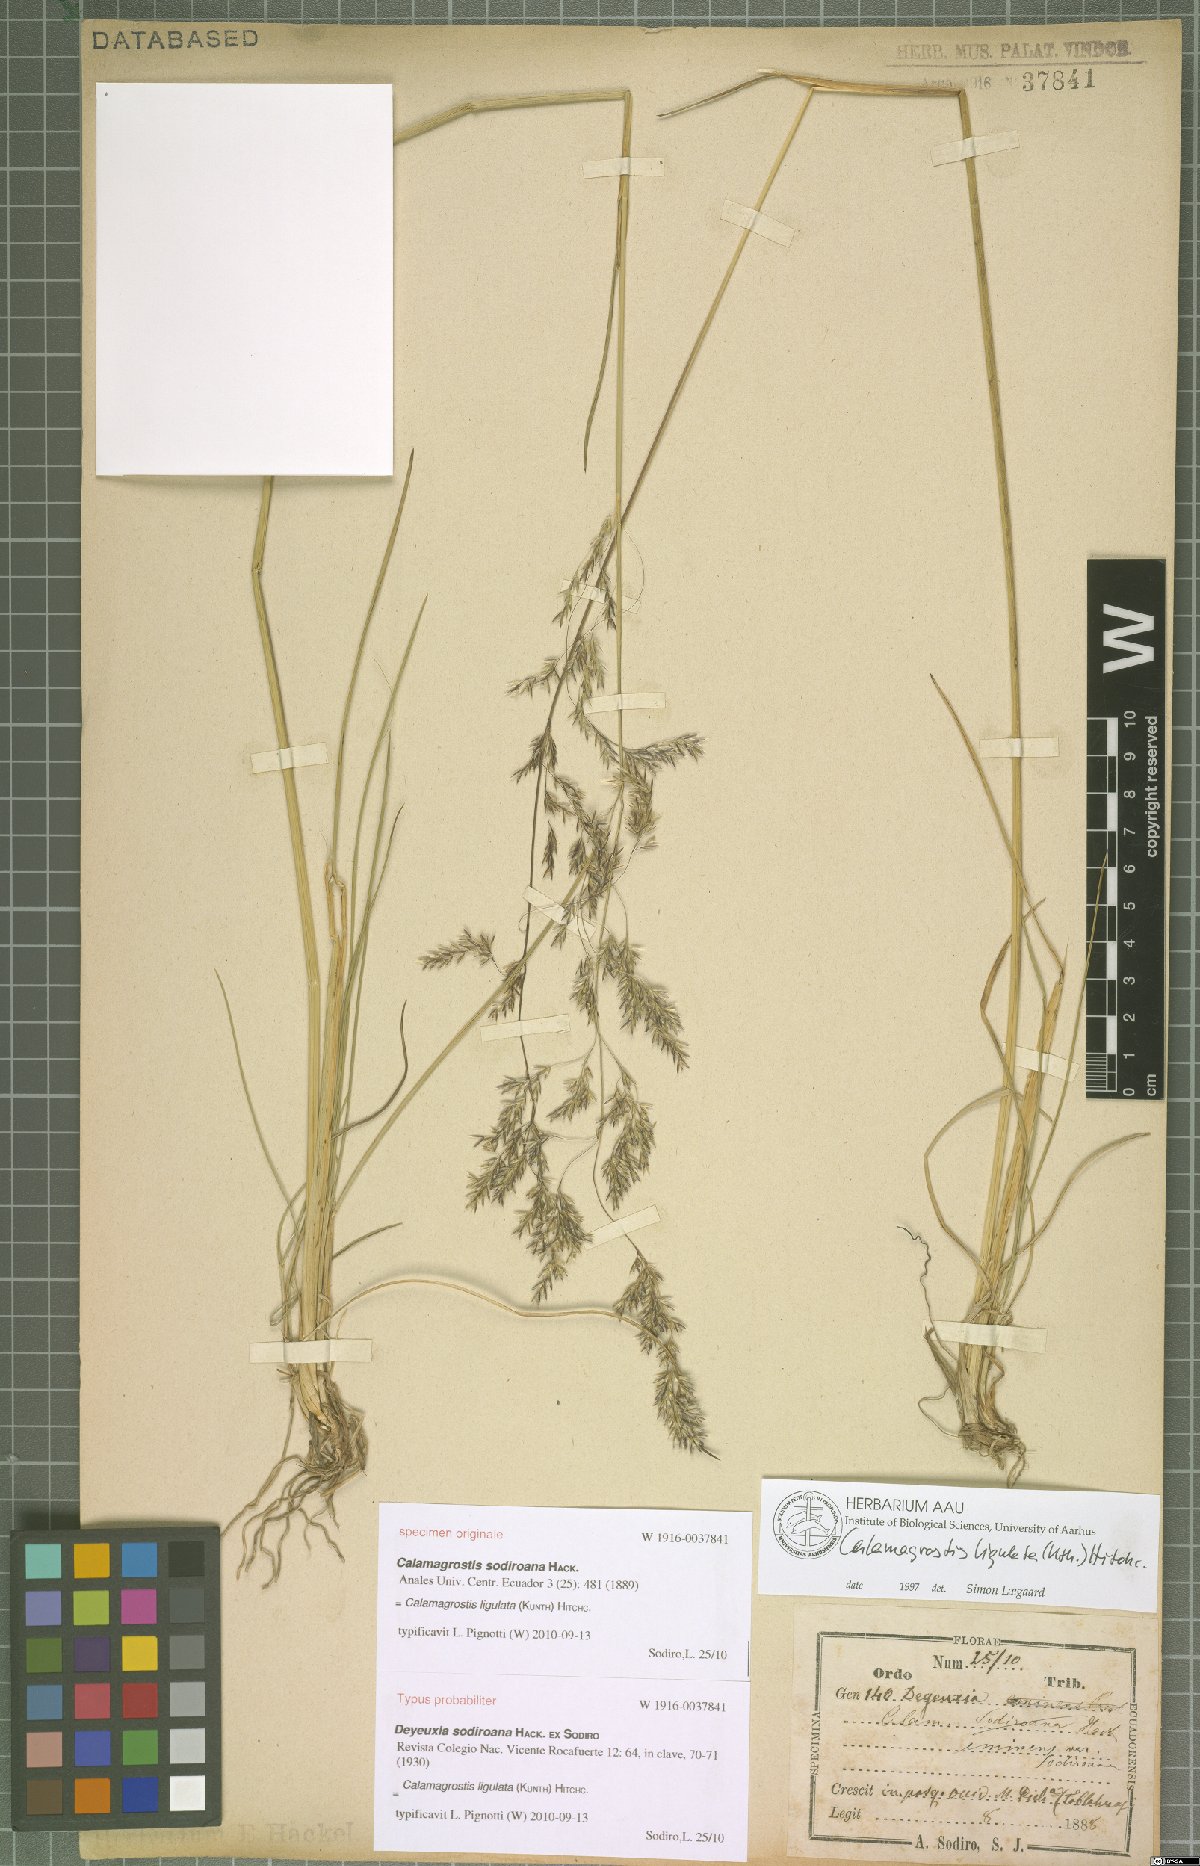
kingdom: Plantae
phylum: Tracheophyta
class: Liliopsida
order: Poales
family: Poaceae
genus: Calamagrostis
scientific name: Calamagrostis ligulata
